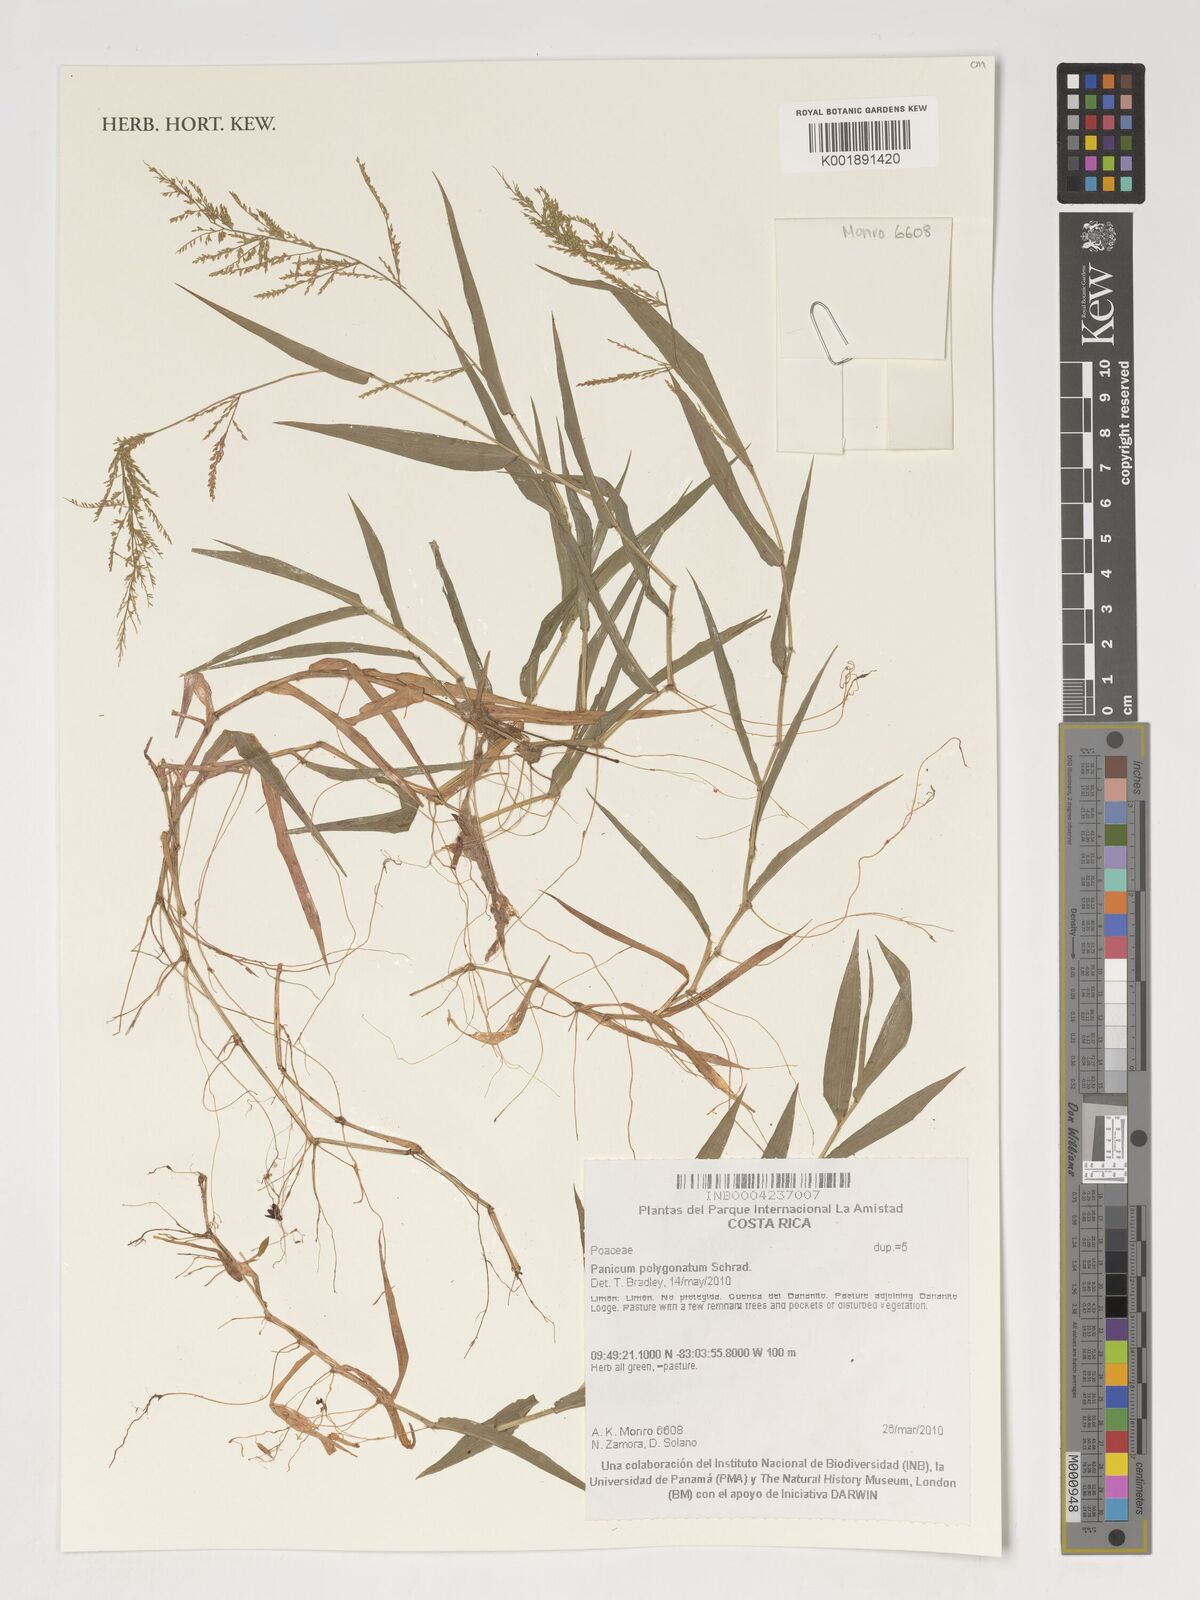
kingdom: Plantae
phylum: Tracheophyta
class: Liliopsida
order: Poales
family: Poaceae
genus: Rugoloa
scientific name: Rugoloa polygonata
